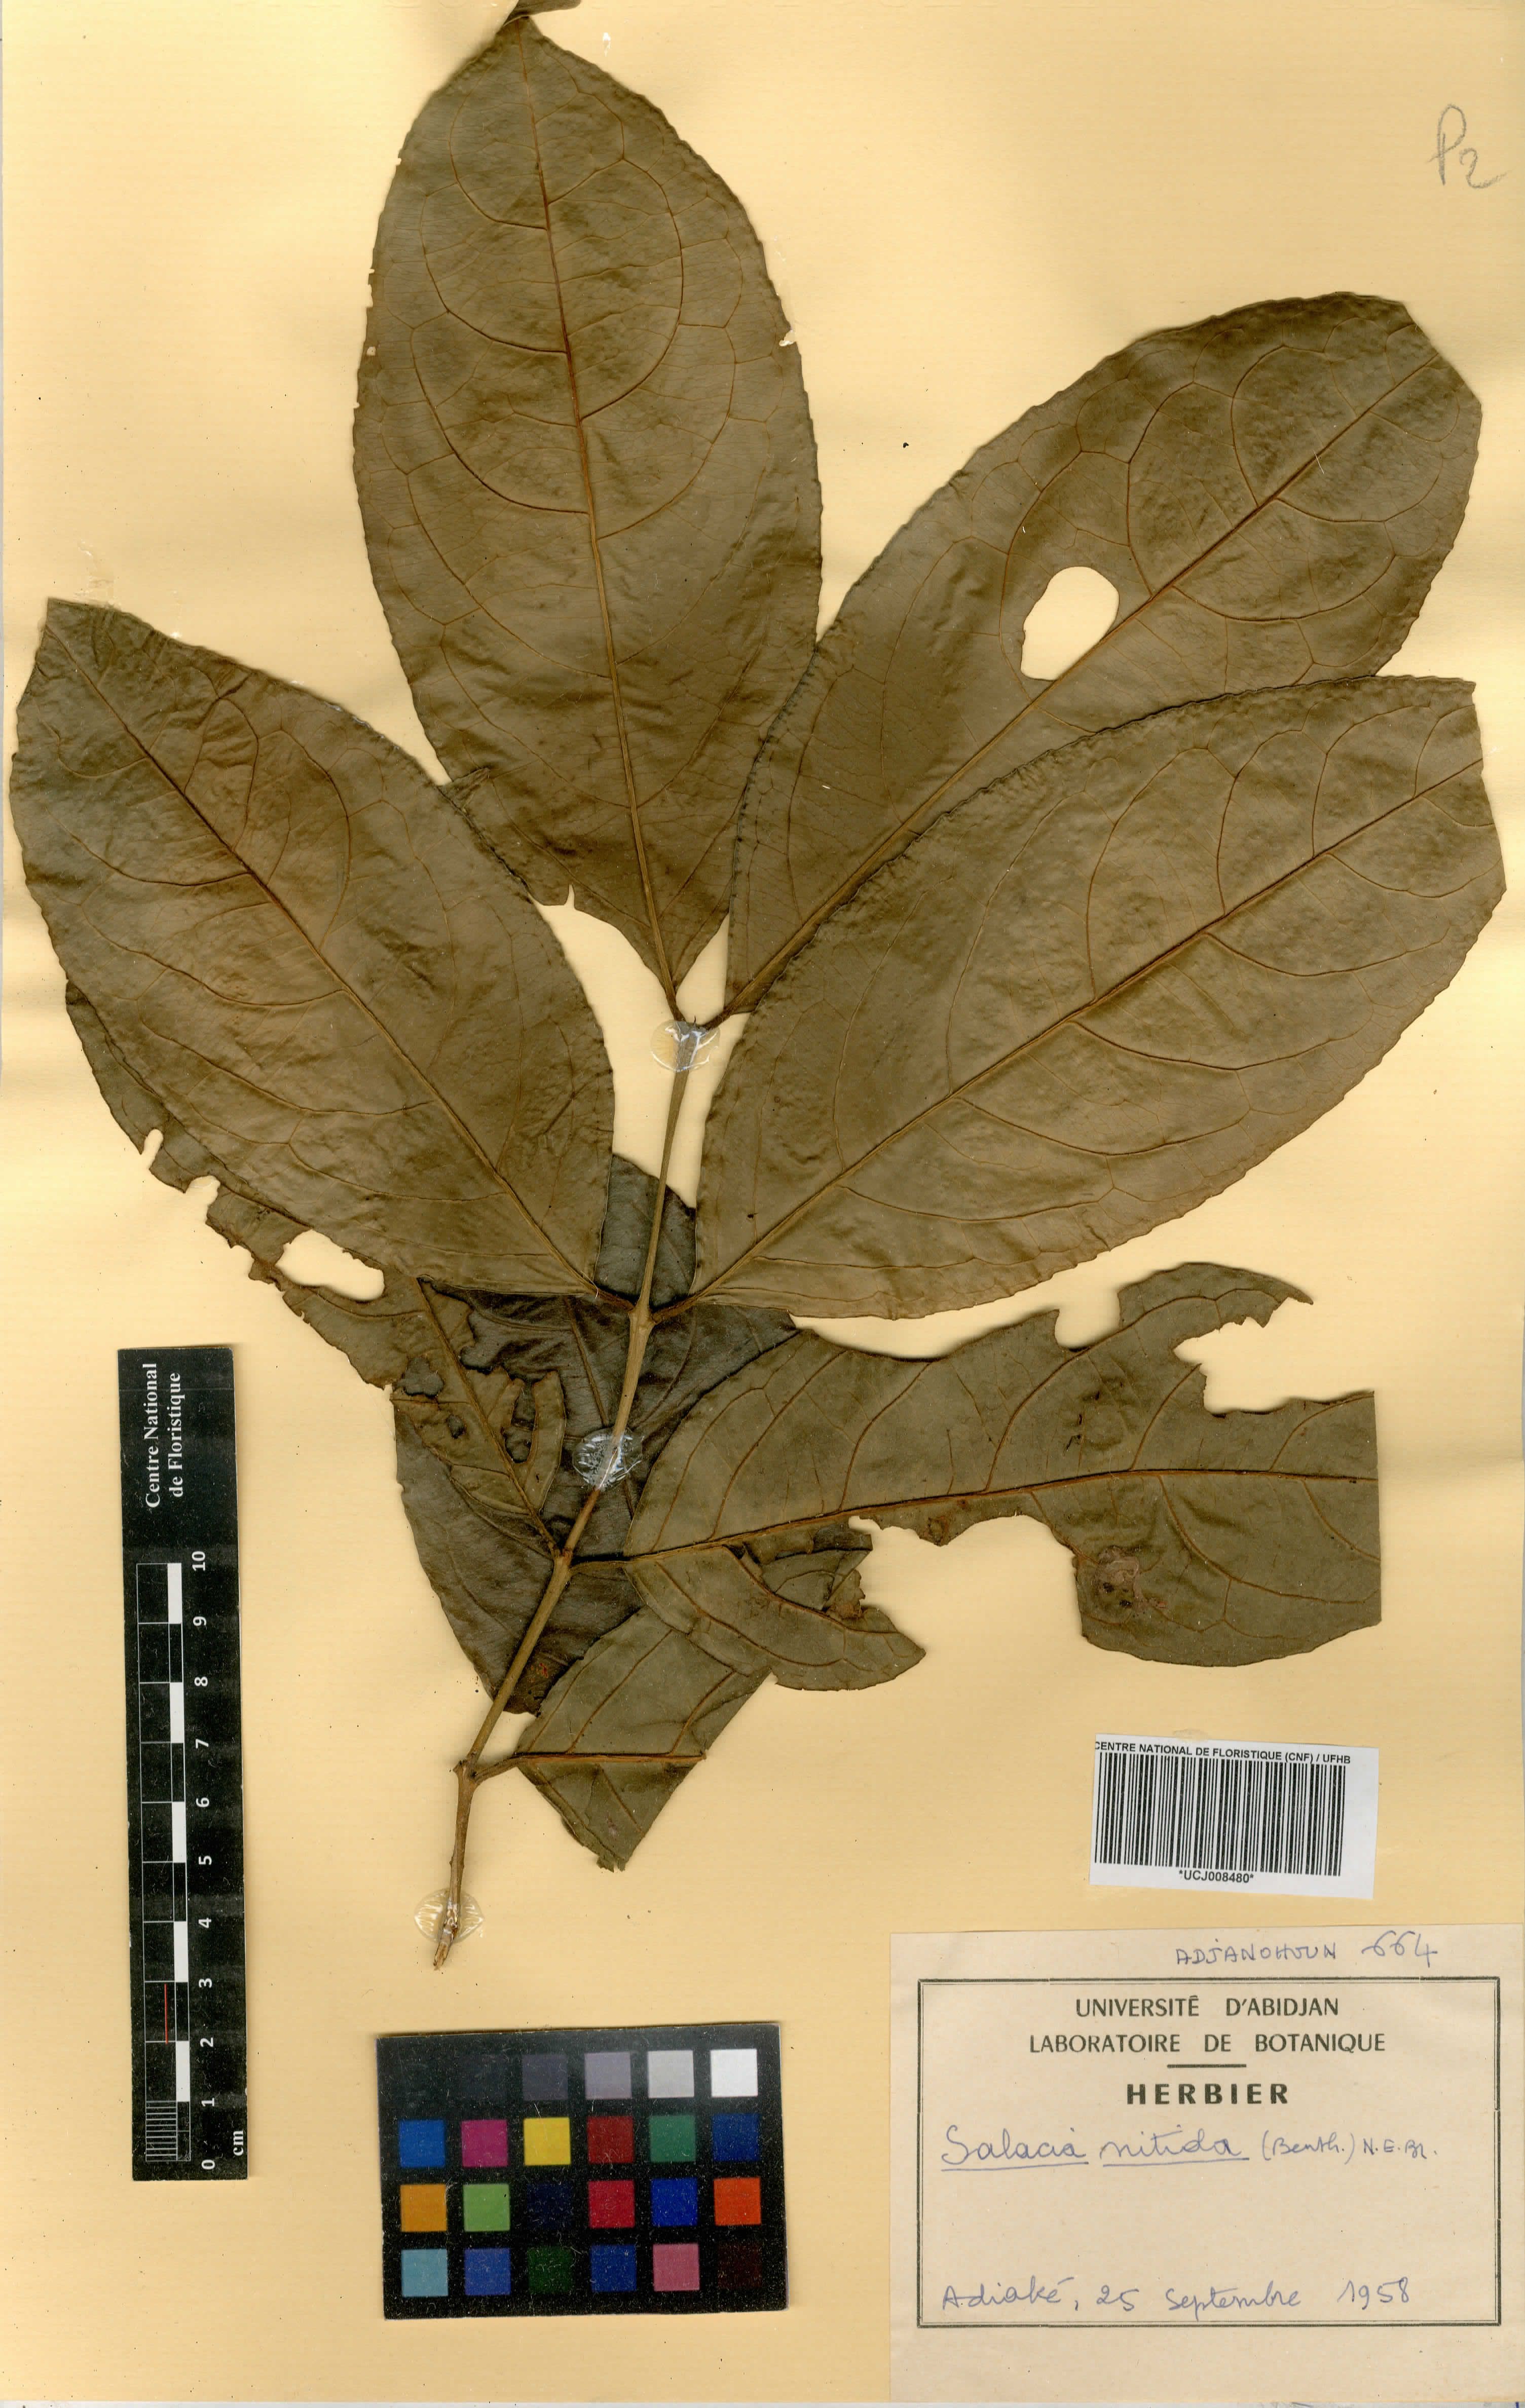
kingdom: Plantae
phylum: Tracheophyta
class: Magnoliopsida
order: Celastrales
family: Celastraceae
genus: Salacia
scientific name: Salacia nitida
